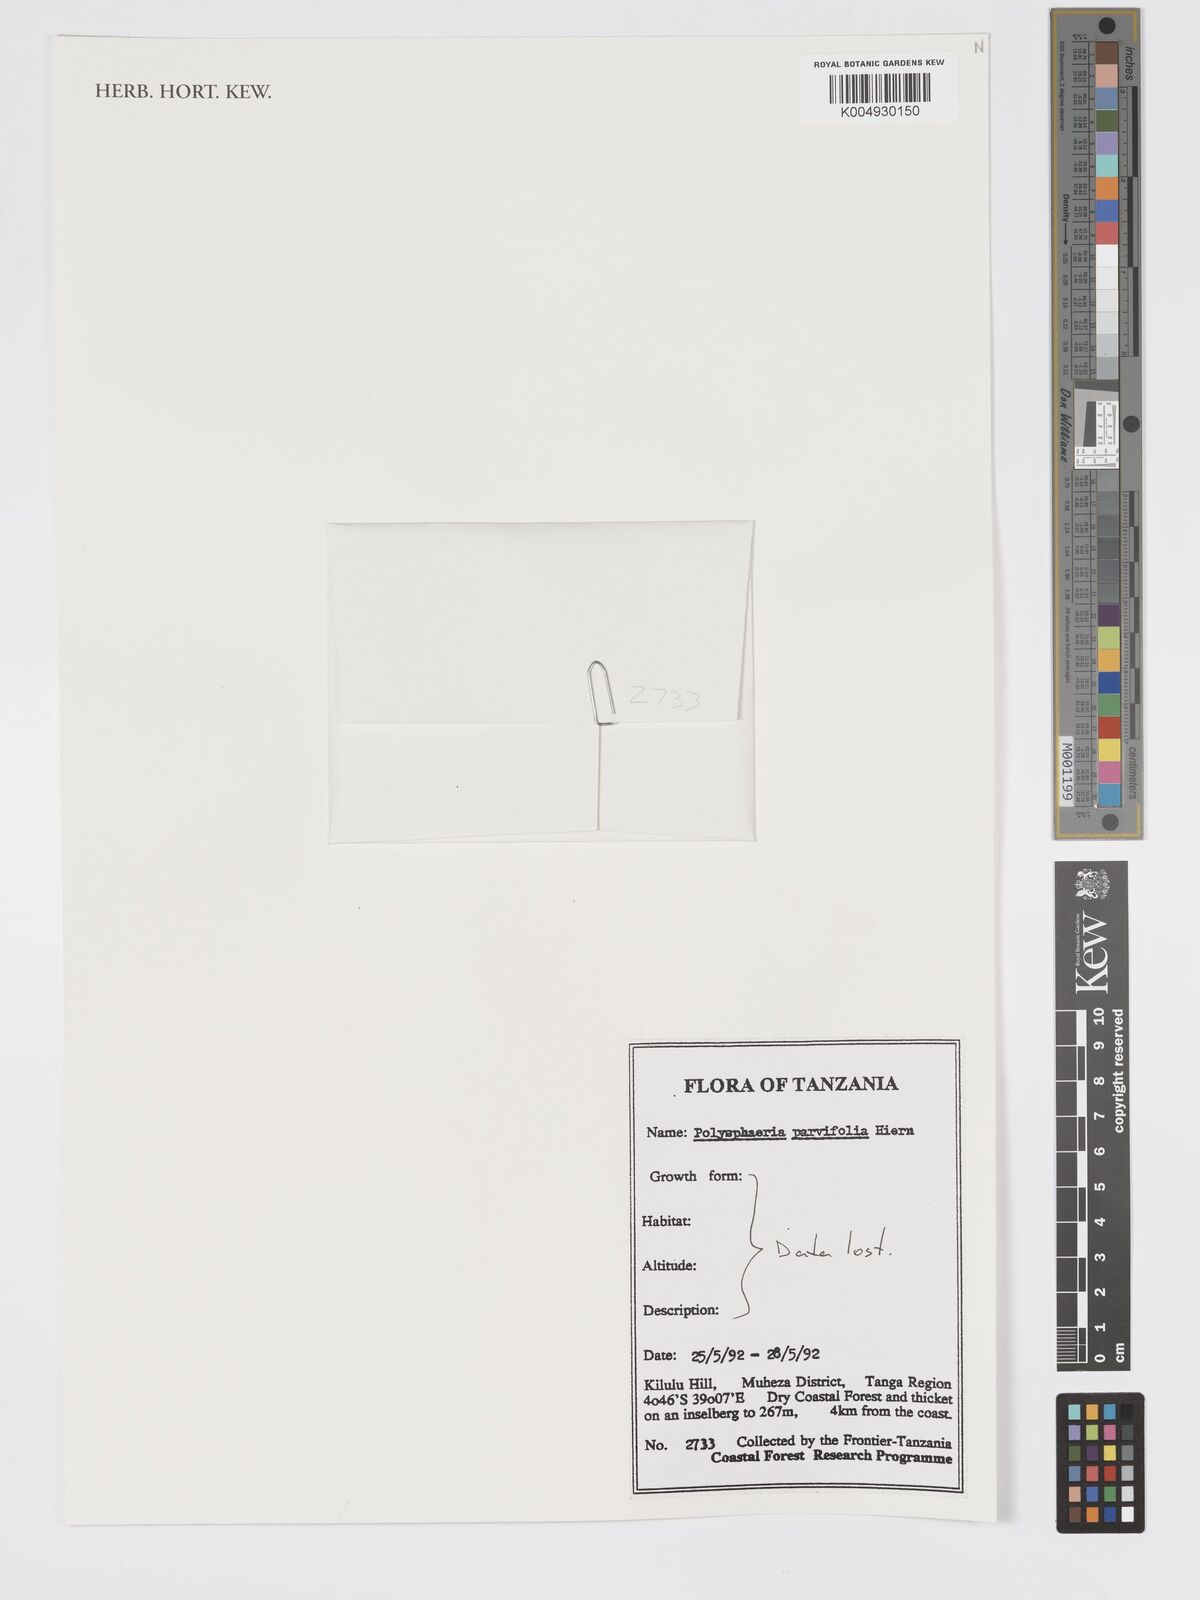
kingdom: Plantae
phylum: Tracheophyta
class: Magnoliopsida
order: Gentianales
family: Rubiaceae
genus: Polysphaeria
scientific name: Polysphaeria parvifolia
